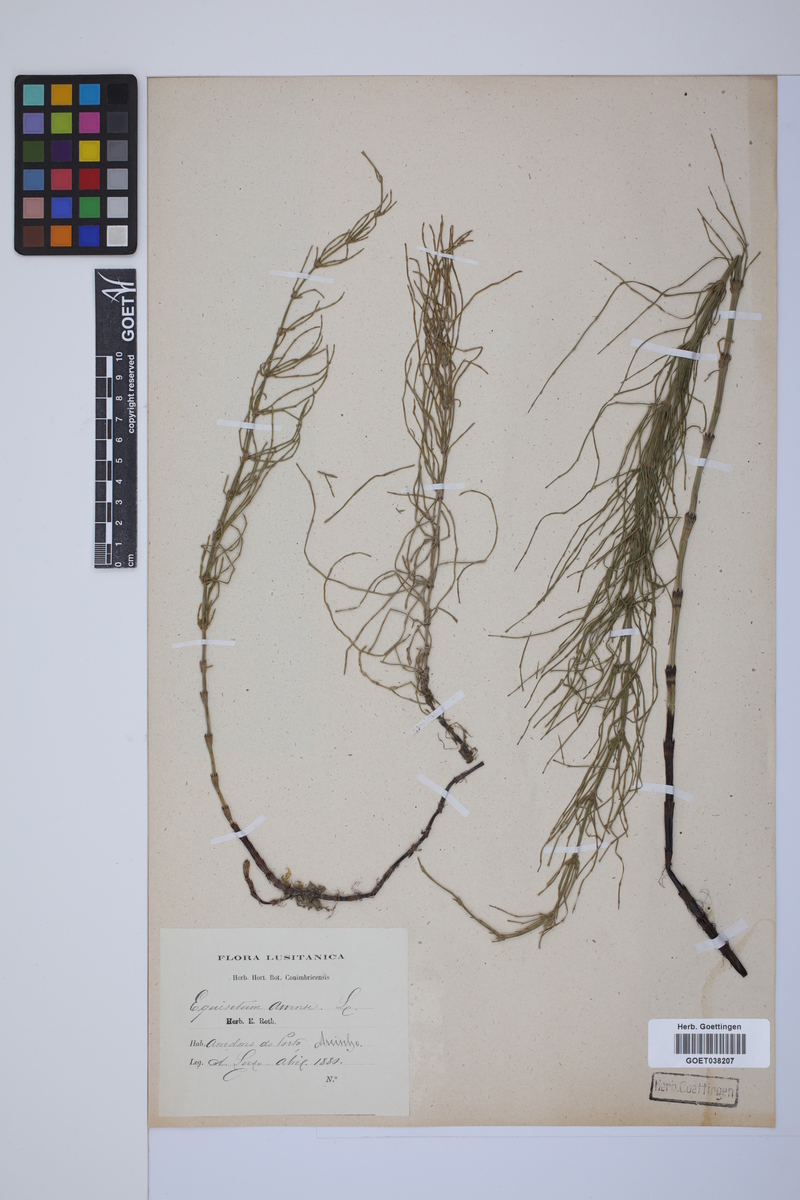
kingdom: Plantae
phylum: Tracheophyta
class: Polypodiopsida
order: Equisetales
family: Equisetaceae
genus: Equisetum
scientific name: Equisetum arvense
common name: Field horsetail
